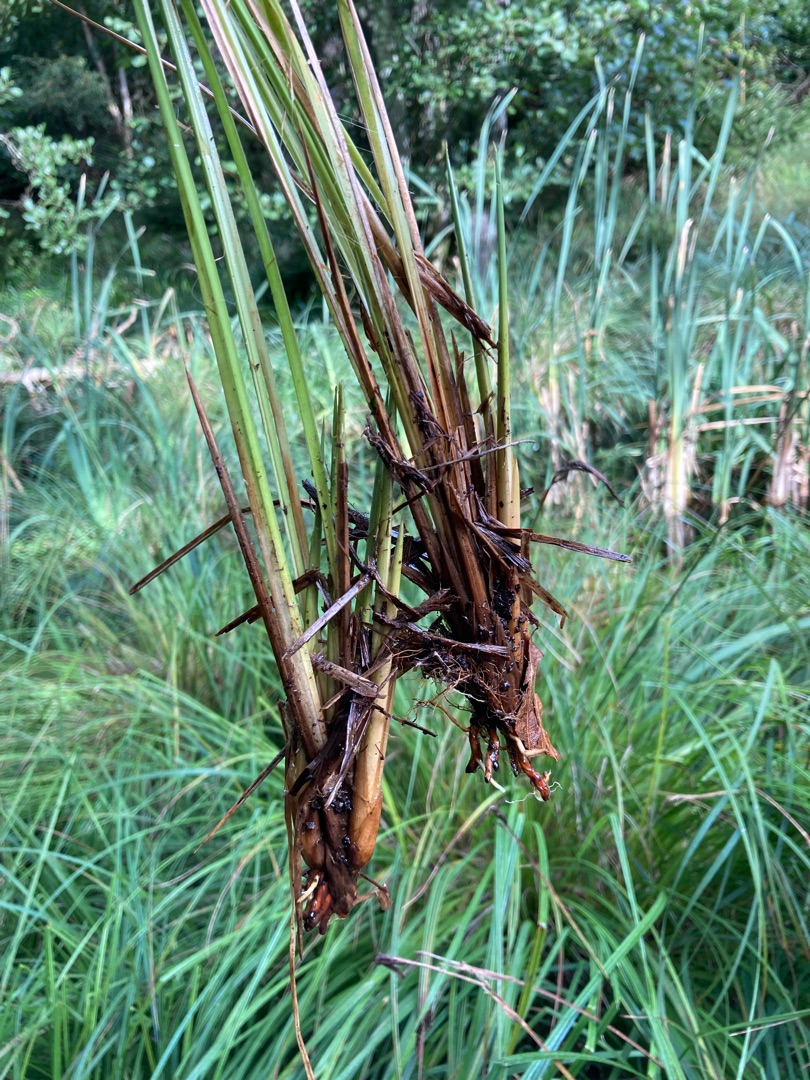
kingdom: Plantae
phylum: Tracheophyta
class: Liliopsida
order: Poales
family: Cyperaceae
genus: Carex
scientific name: Carex elata
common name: Stiv star
